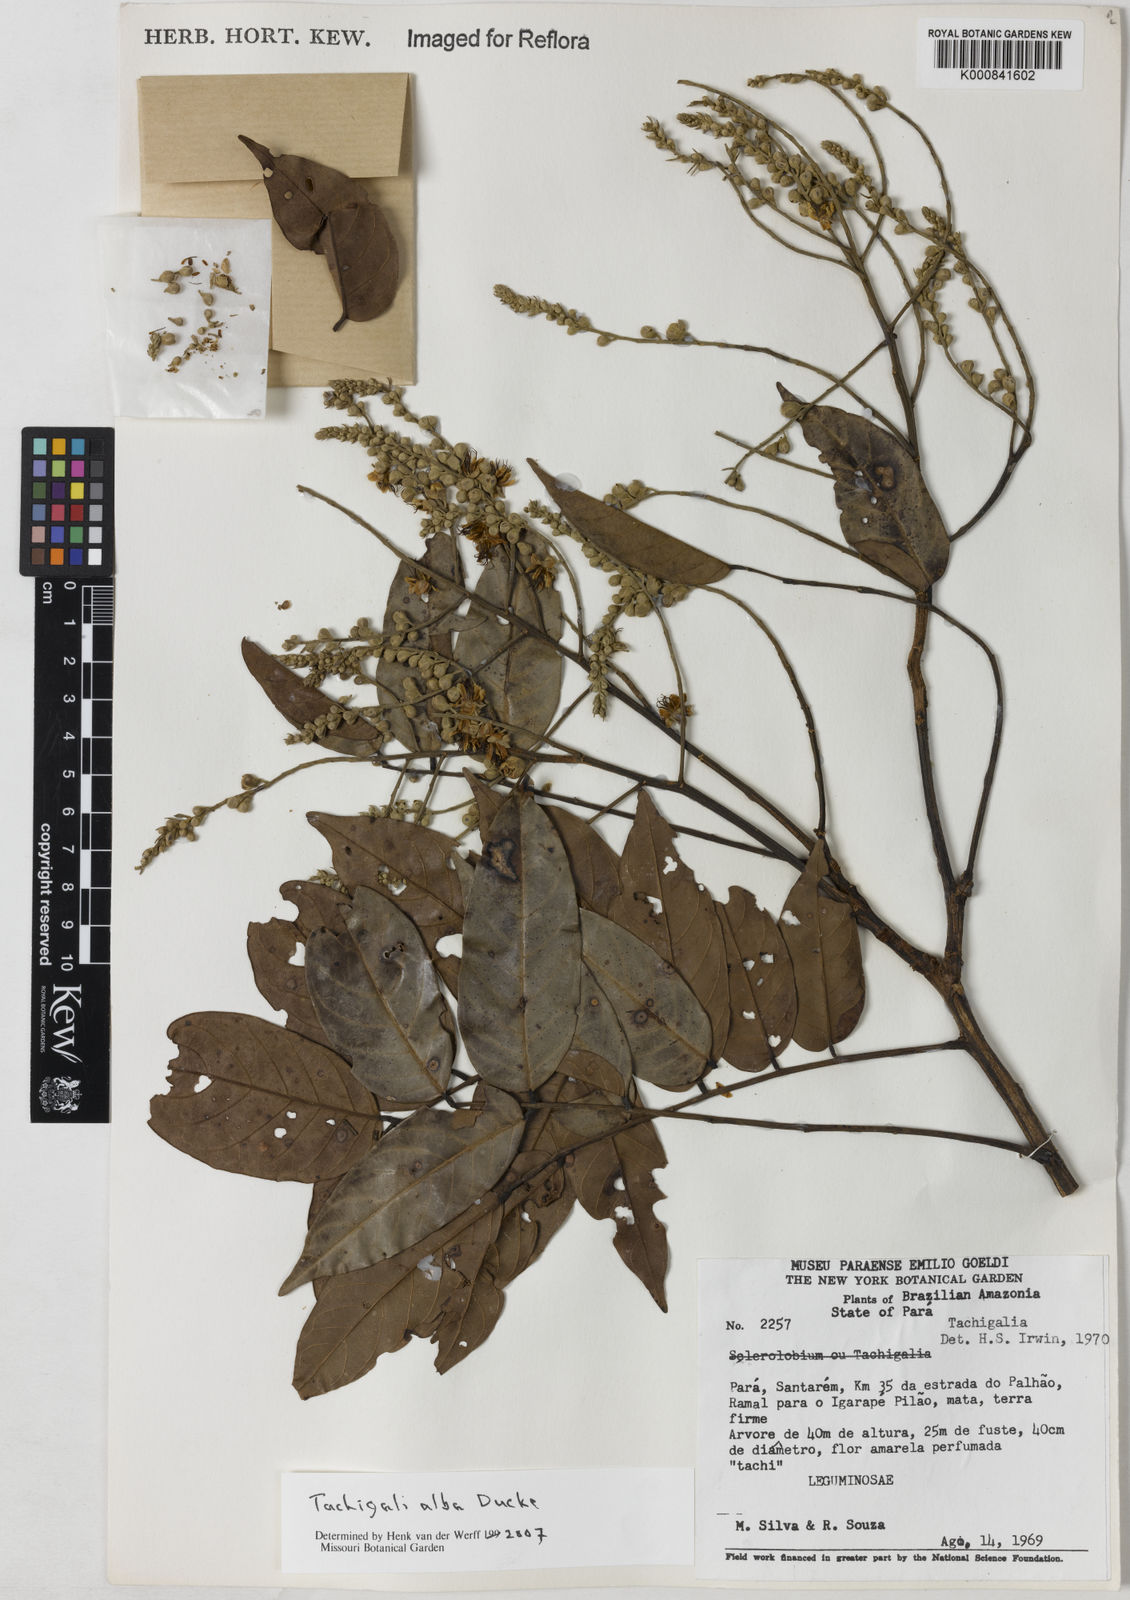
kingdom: Plantae
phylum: Tracheophyta
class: Magnoliopsida
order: Fabales
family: Fabaceae
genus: Tachigali
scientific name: Tachigali alba
